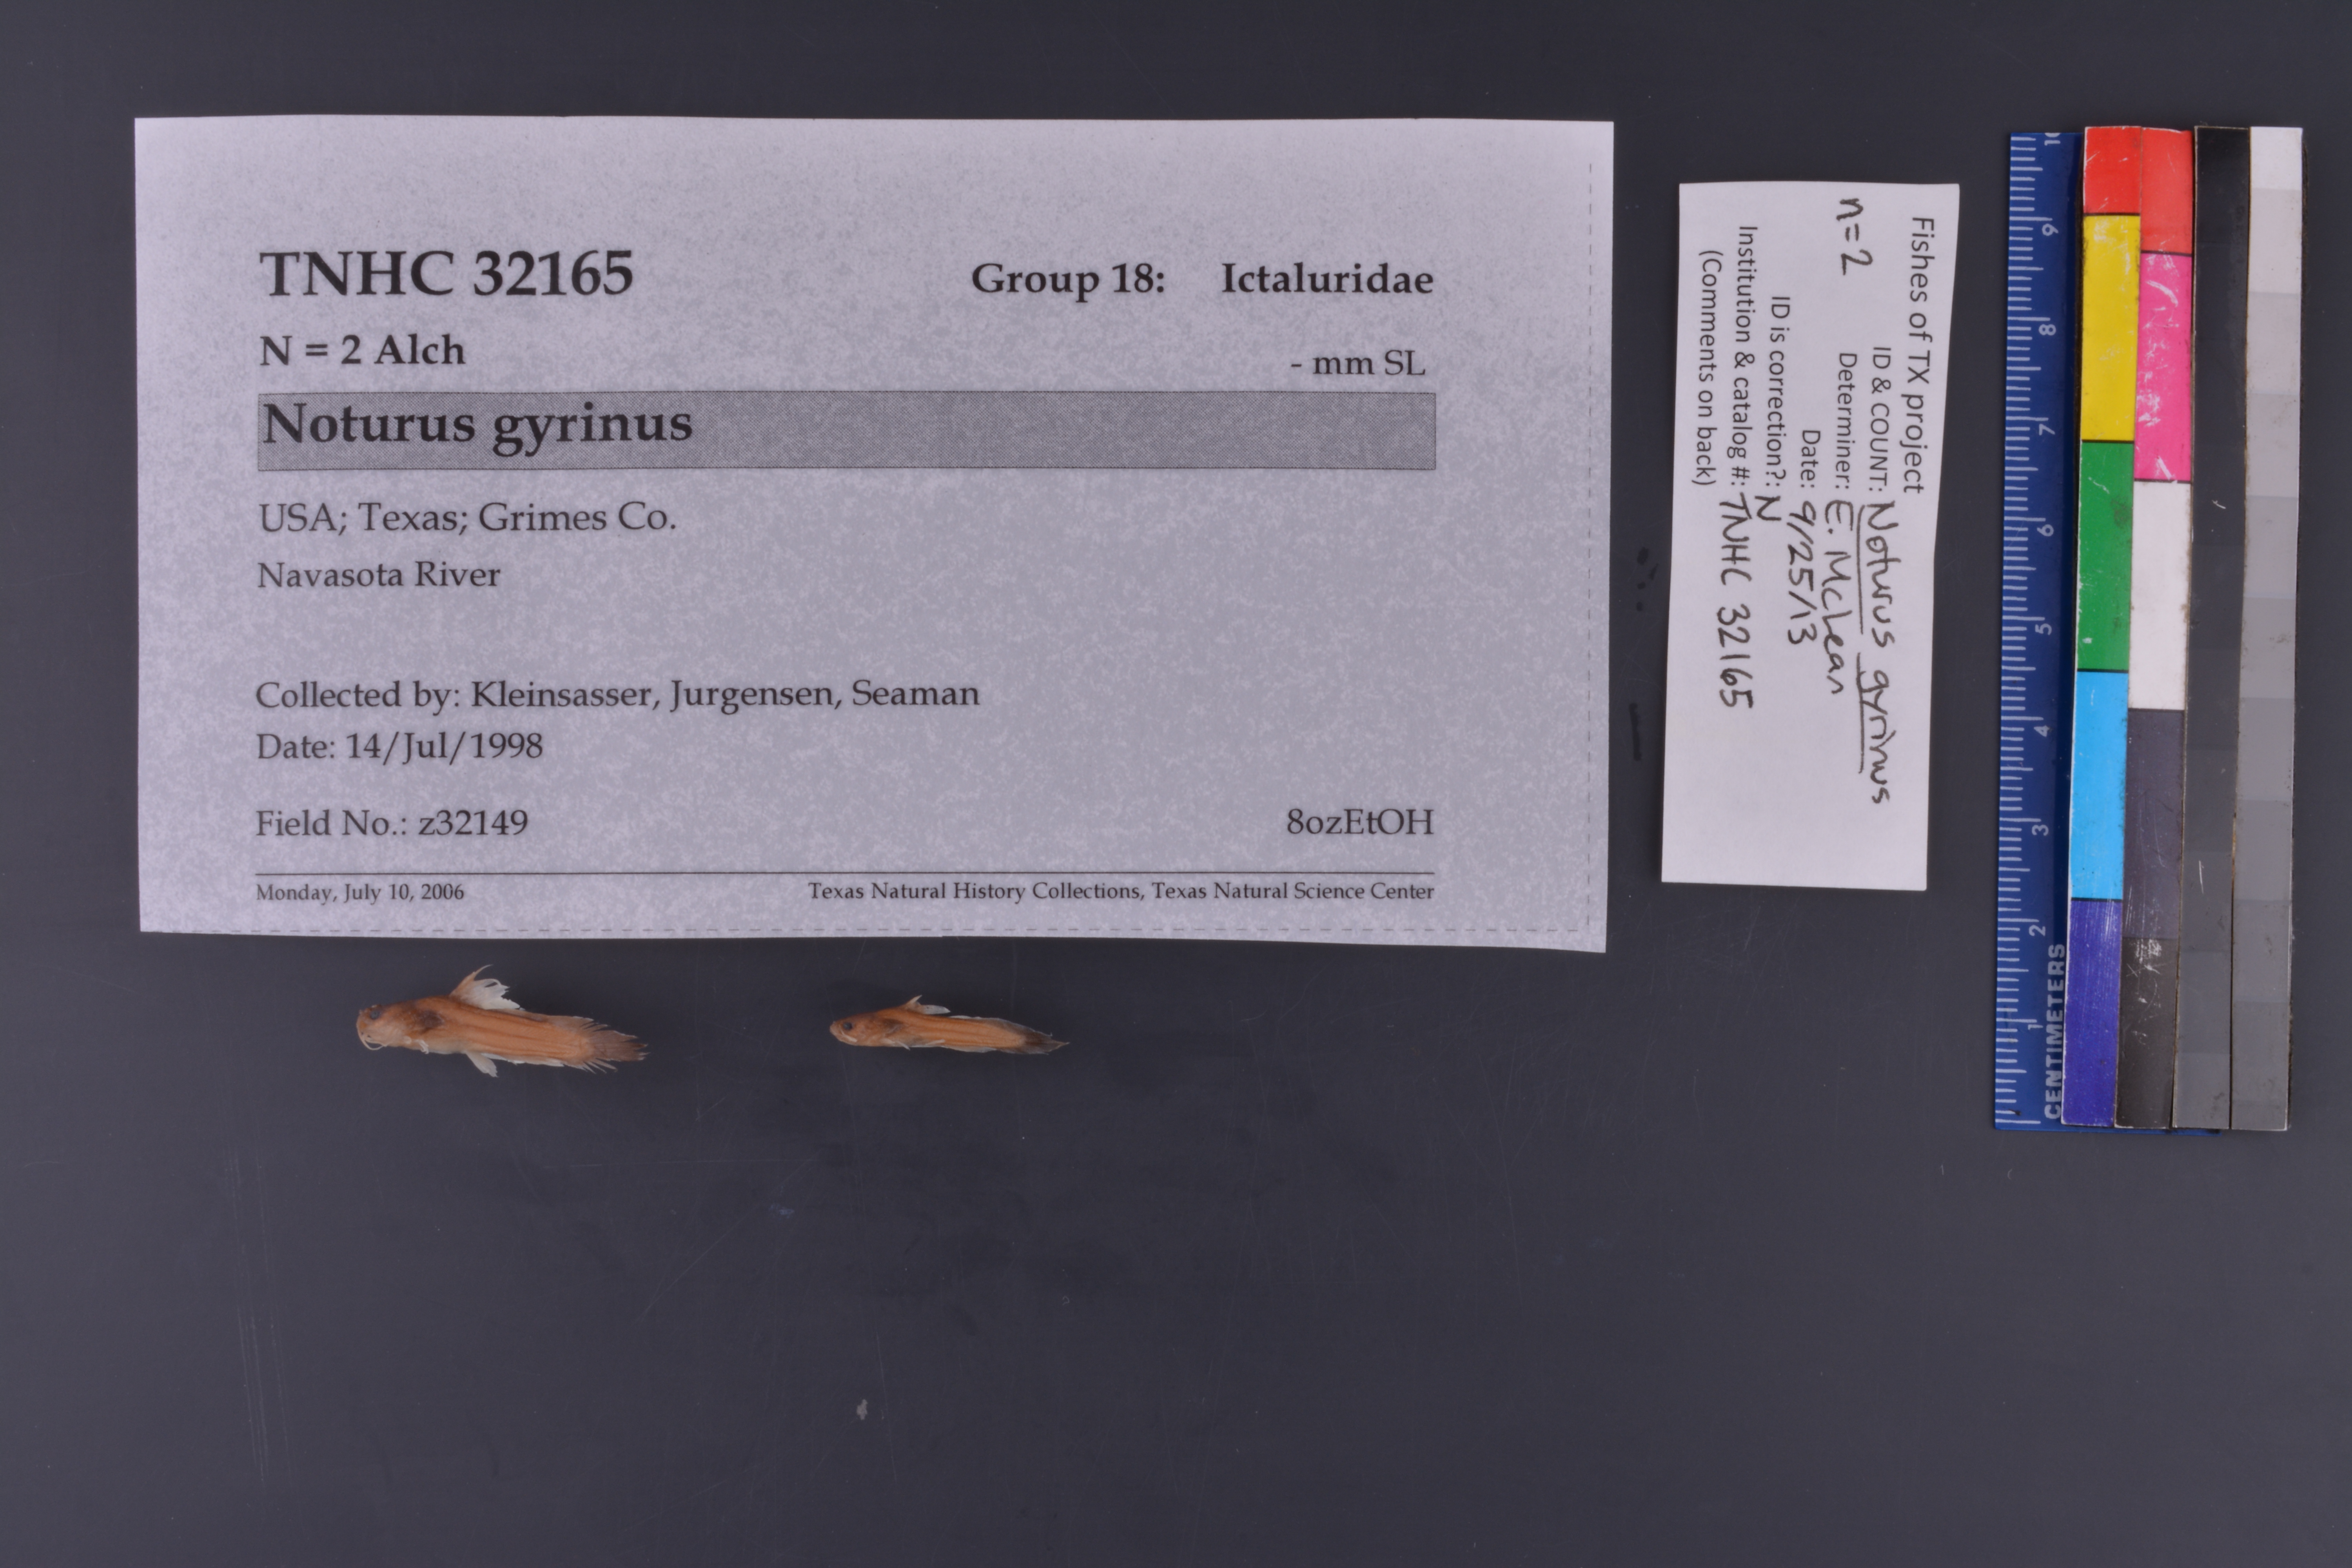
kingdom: Animalia
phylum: Chordata
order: Siluriformes
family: Ictaluridae
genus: Noturus
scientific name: Noturus gyrinus
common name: Tadpole madtom
